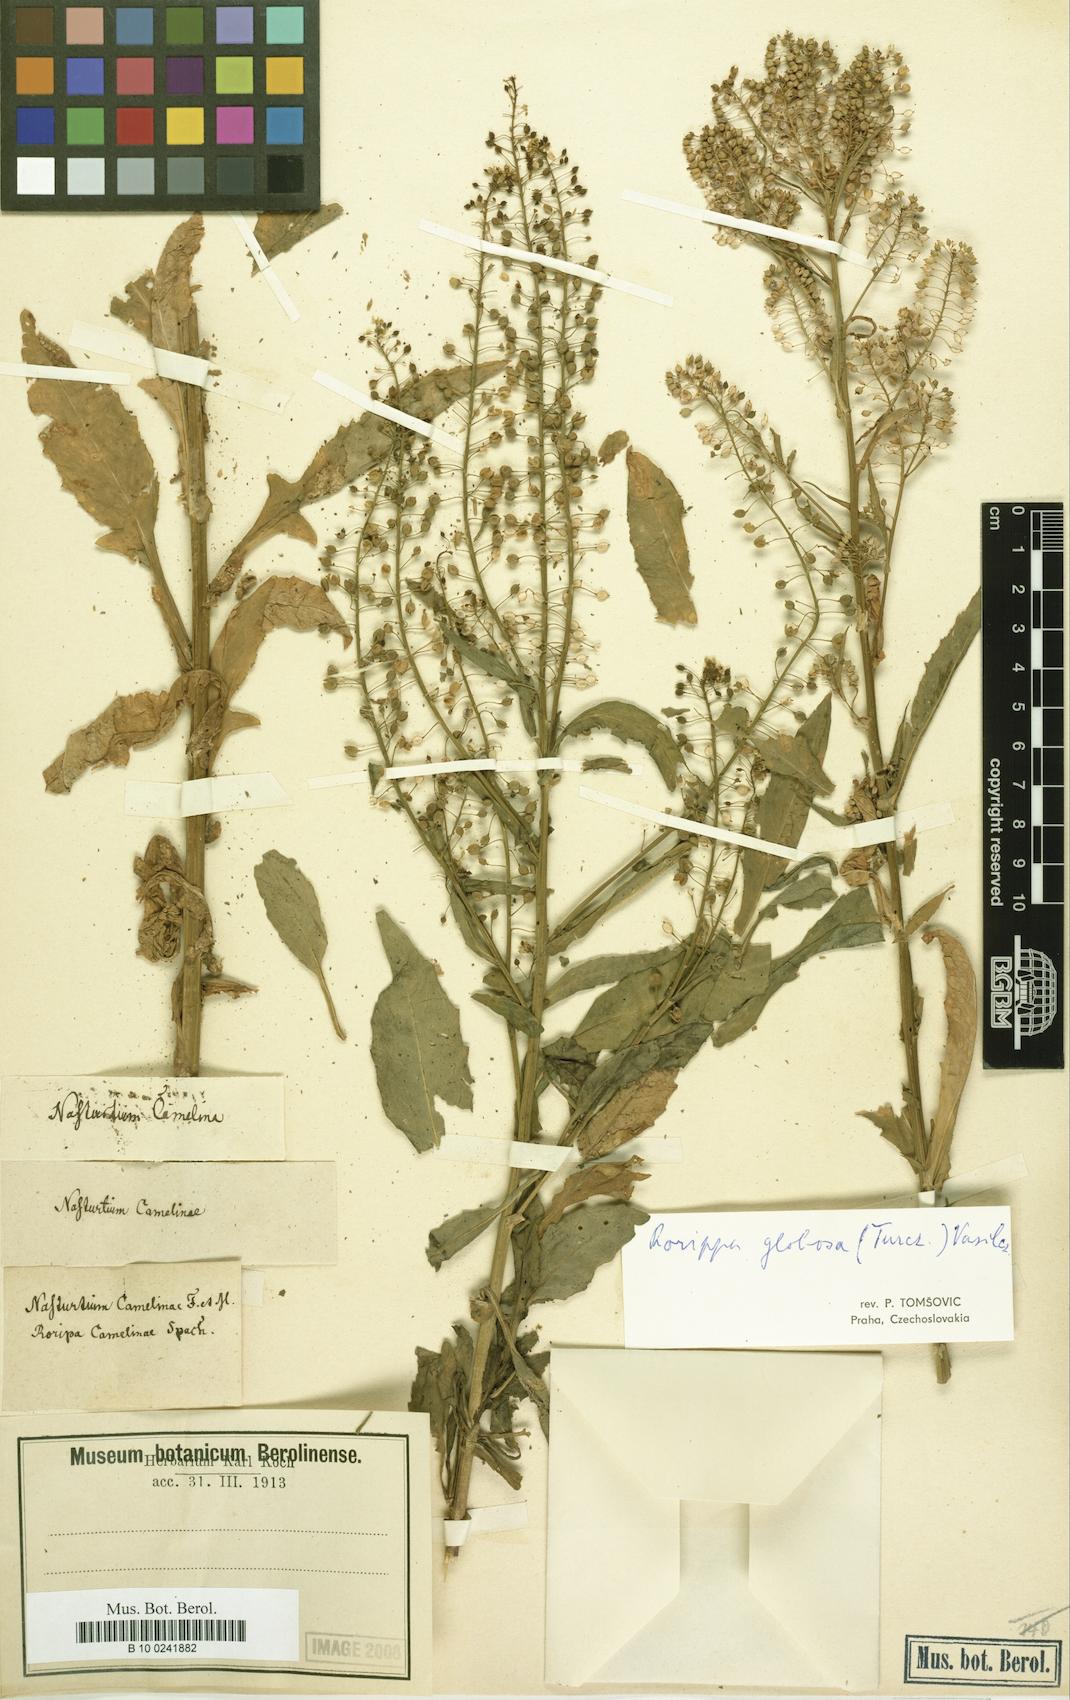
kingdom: Plantae
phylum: Tracheophyta
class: Magnoliopsida
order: Brassicales
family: Brassicaceae
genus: Rorippa
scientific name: Rorippa camelinae
